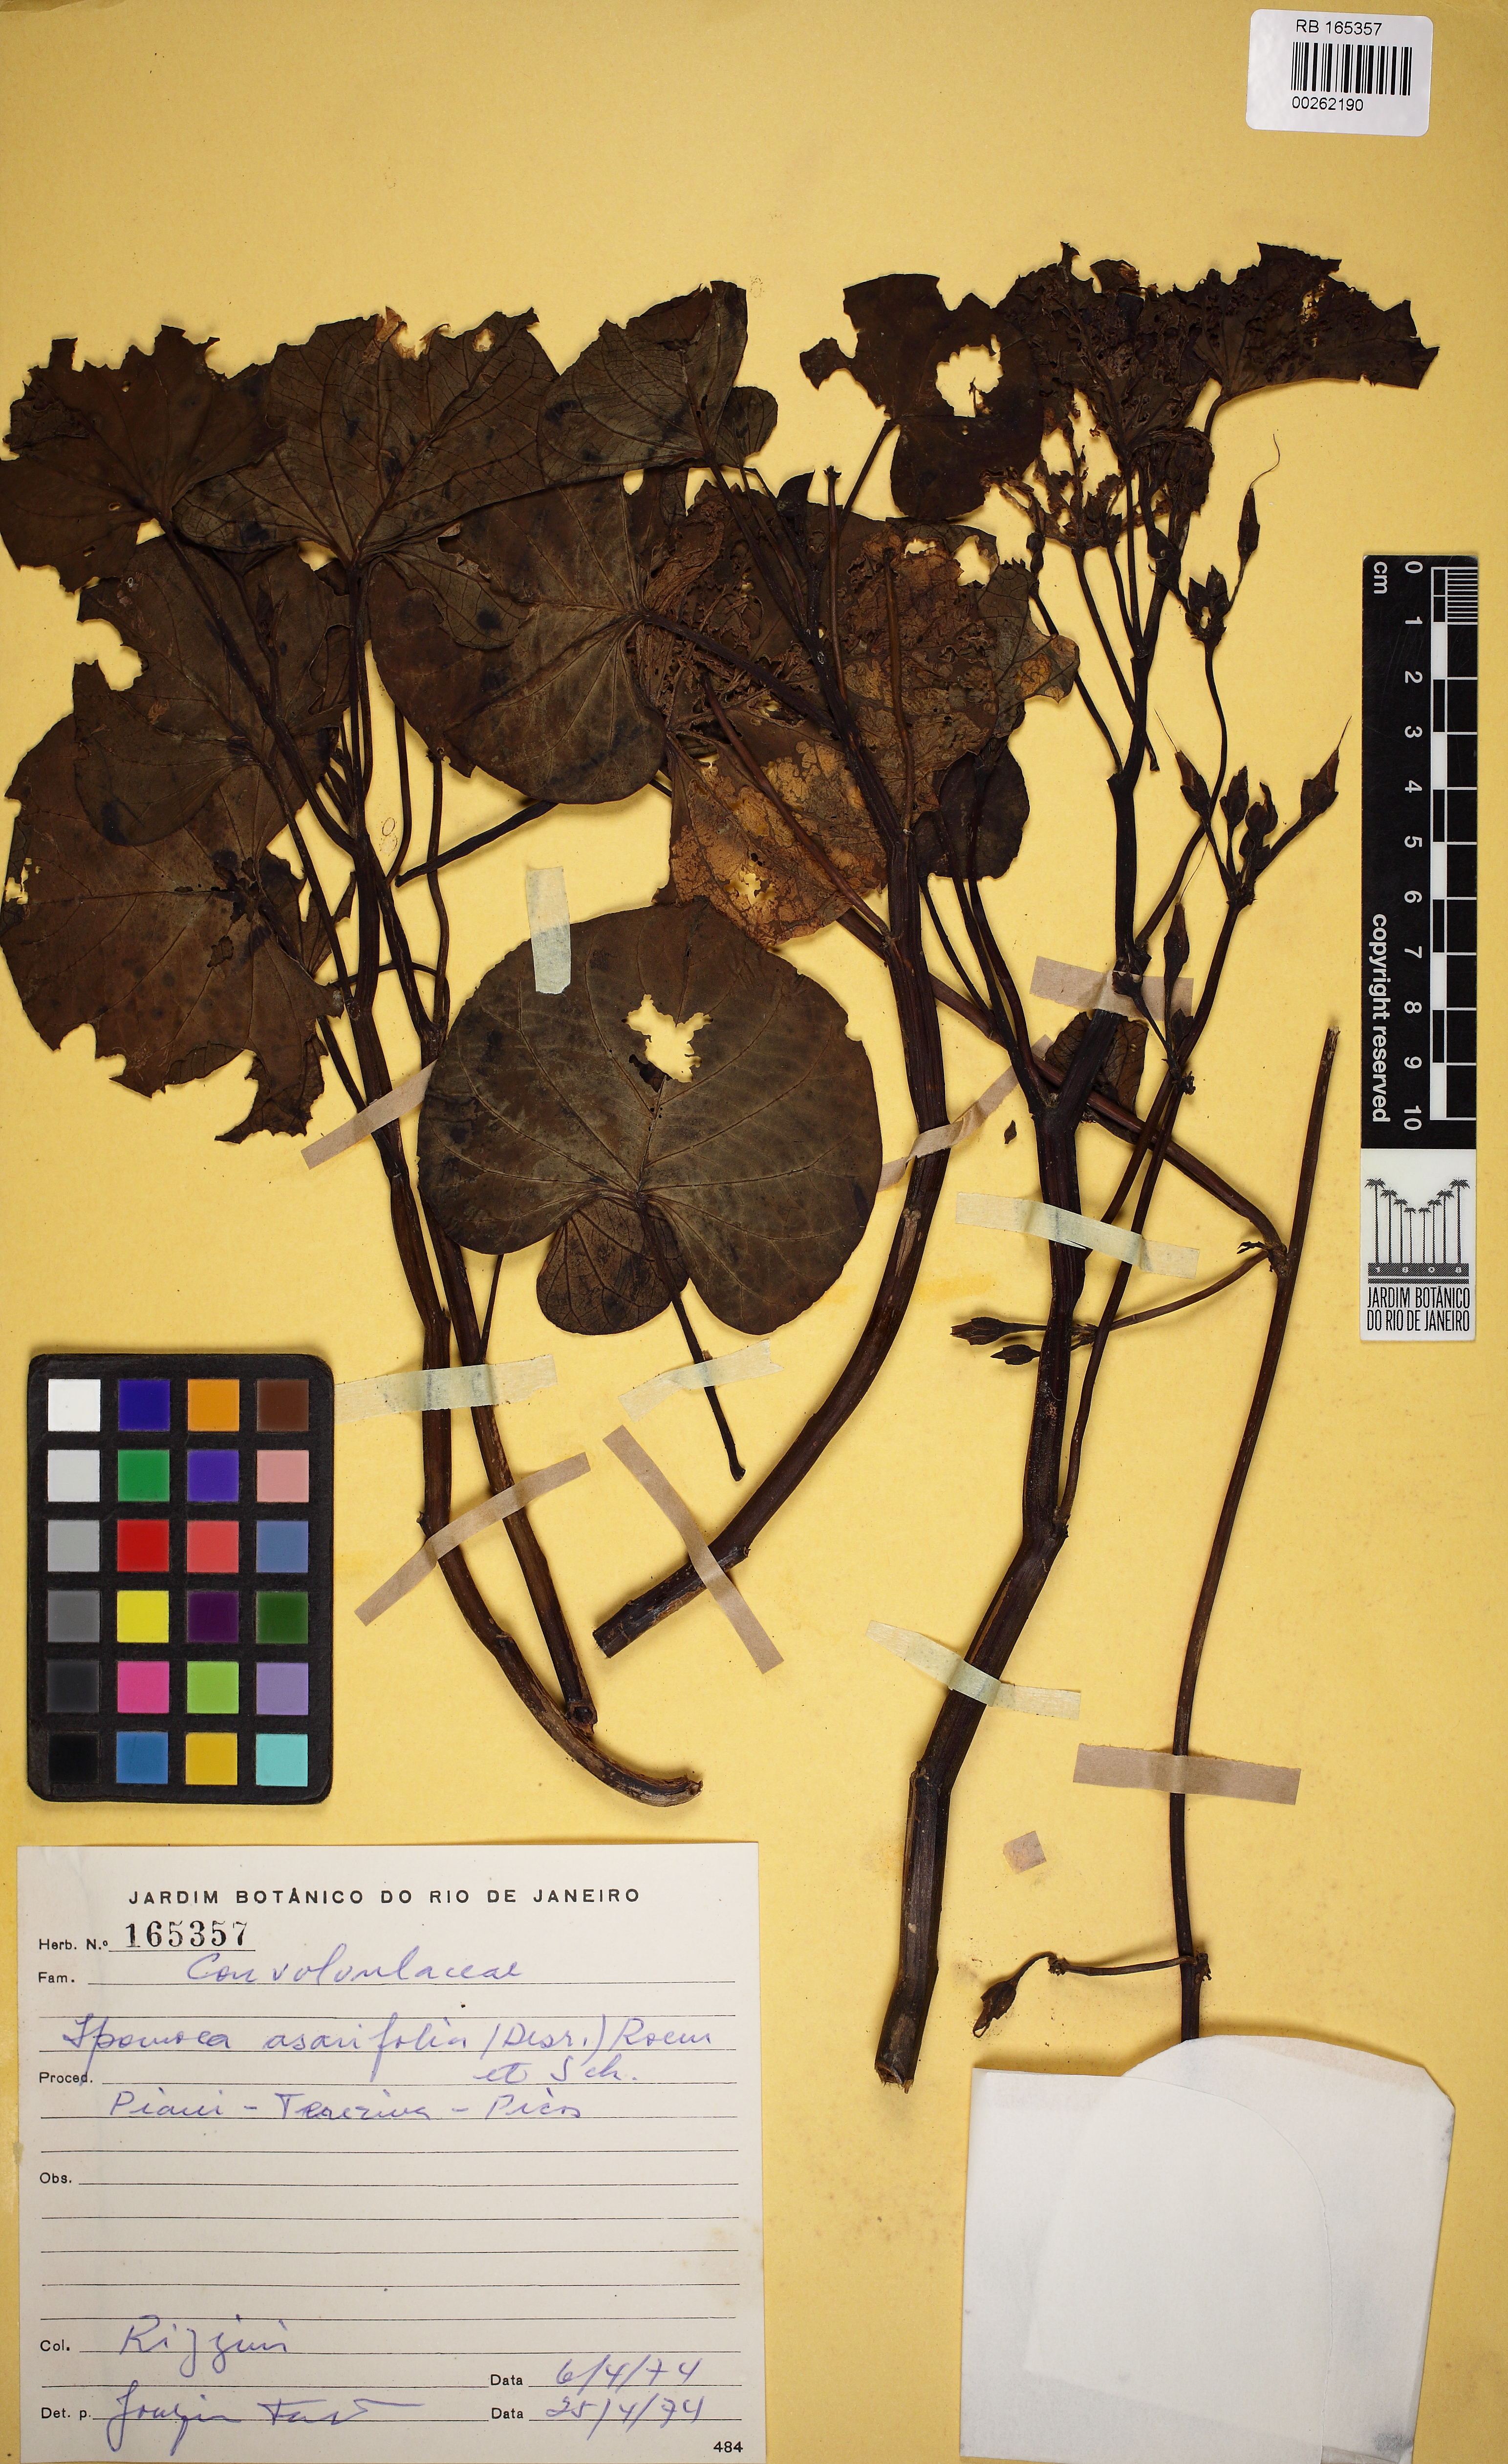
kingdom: Plantae
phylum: Tracheophyta
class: Magnoliopsida
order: Solanales
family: Convolvulaceae
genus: Ipomoea
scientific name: Ipomoea asarifolia
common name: Ginger-leaf morning-glory
